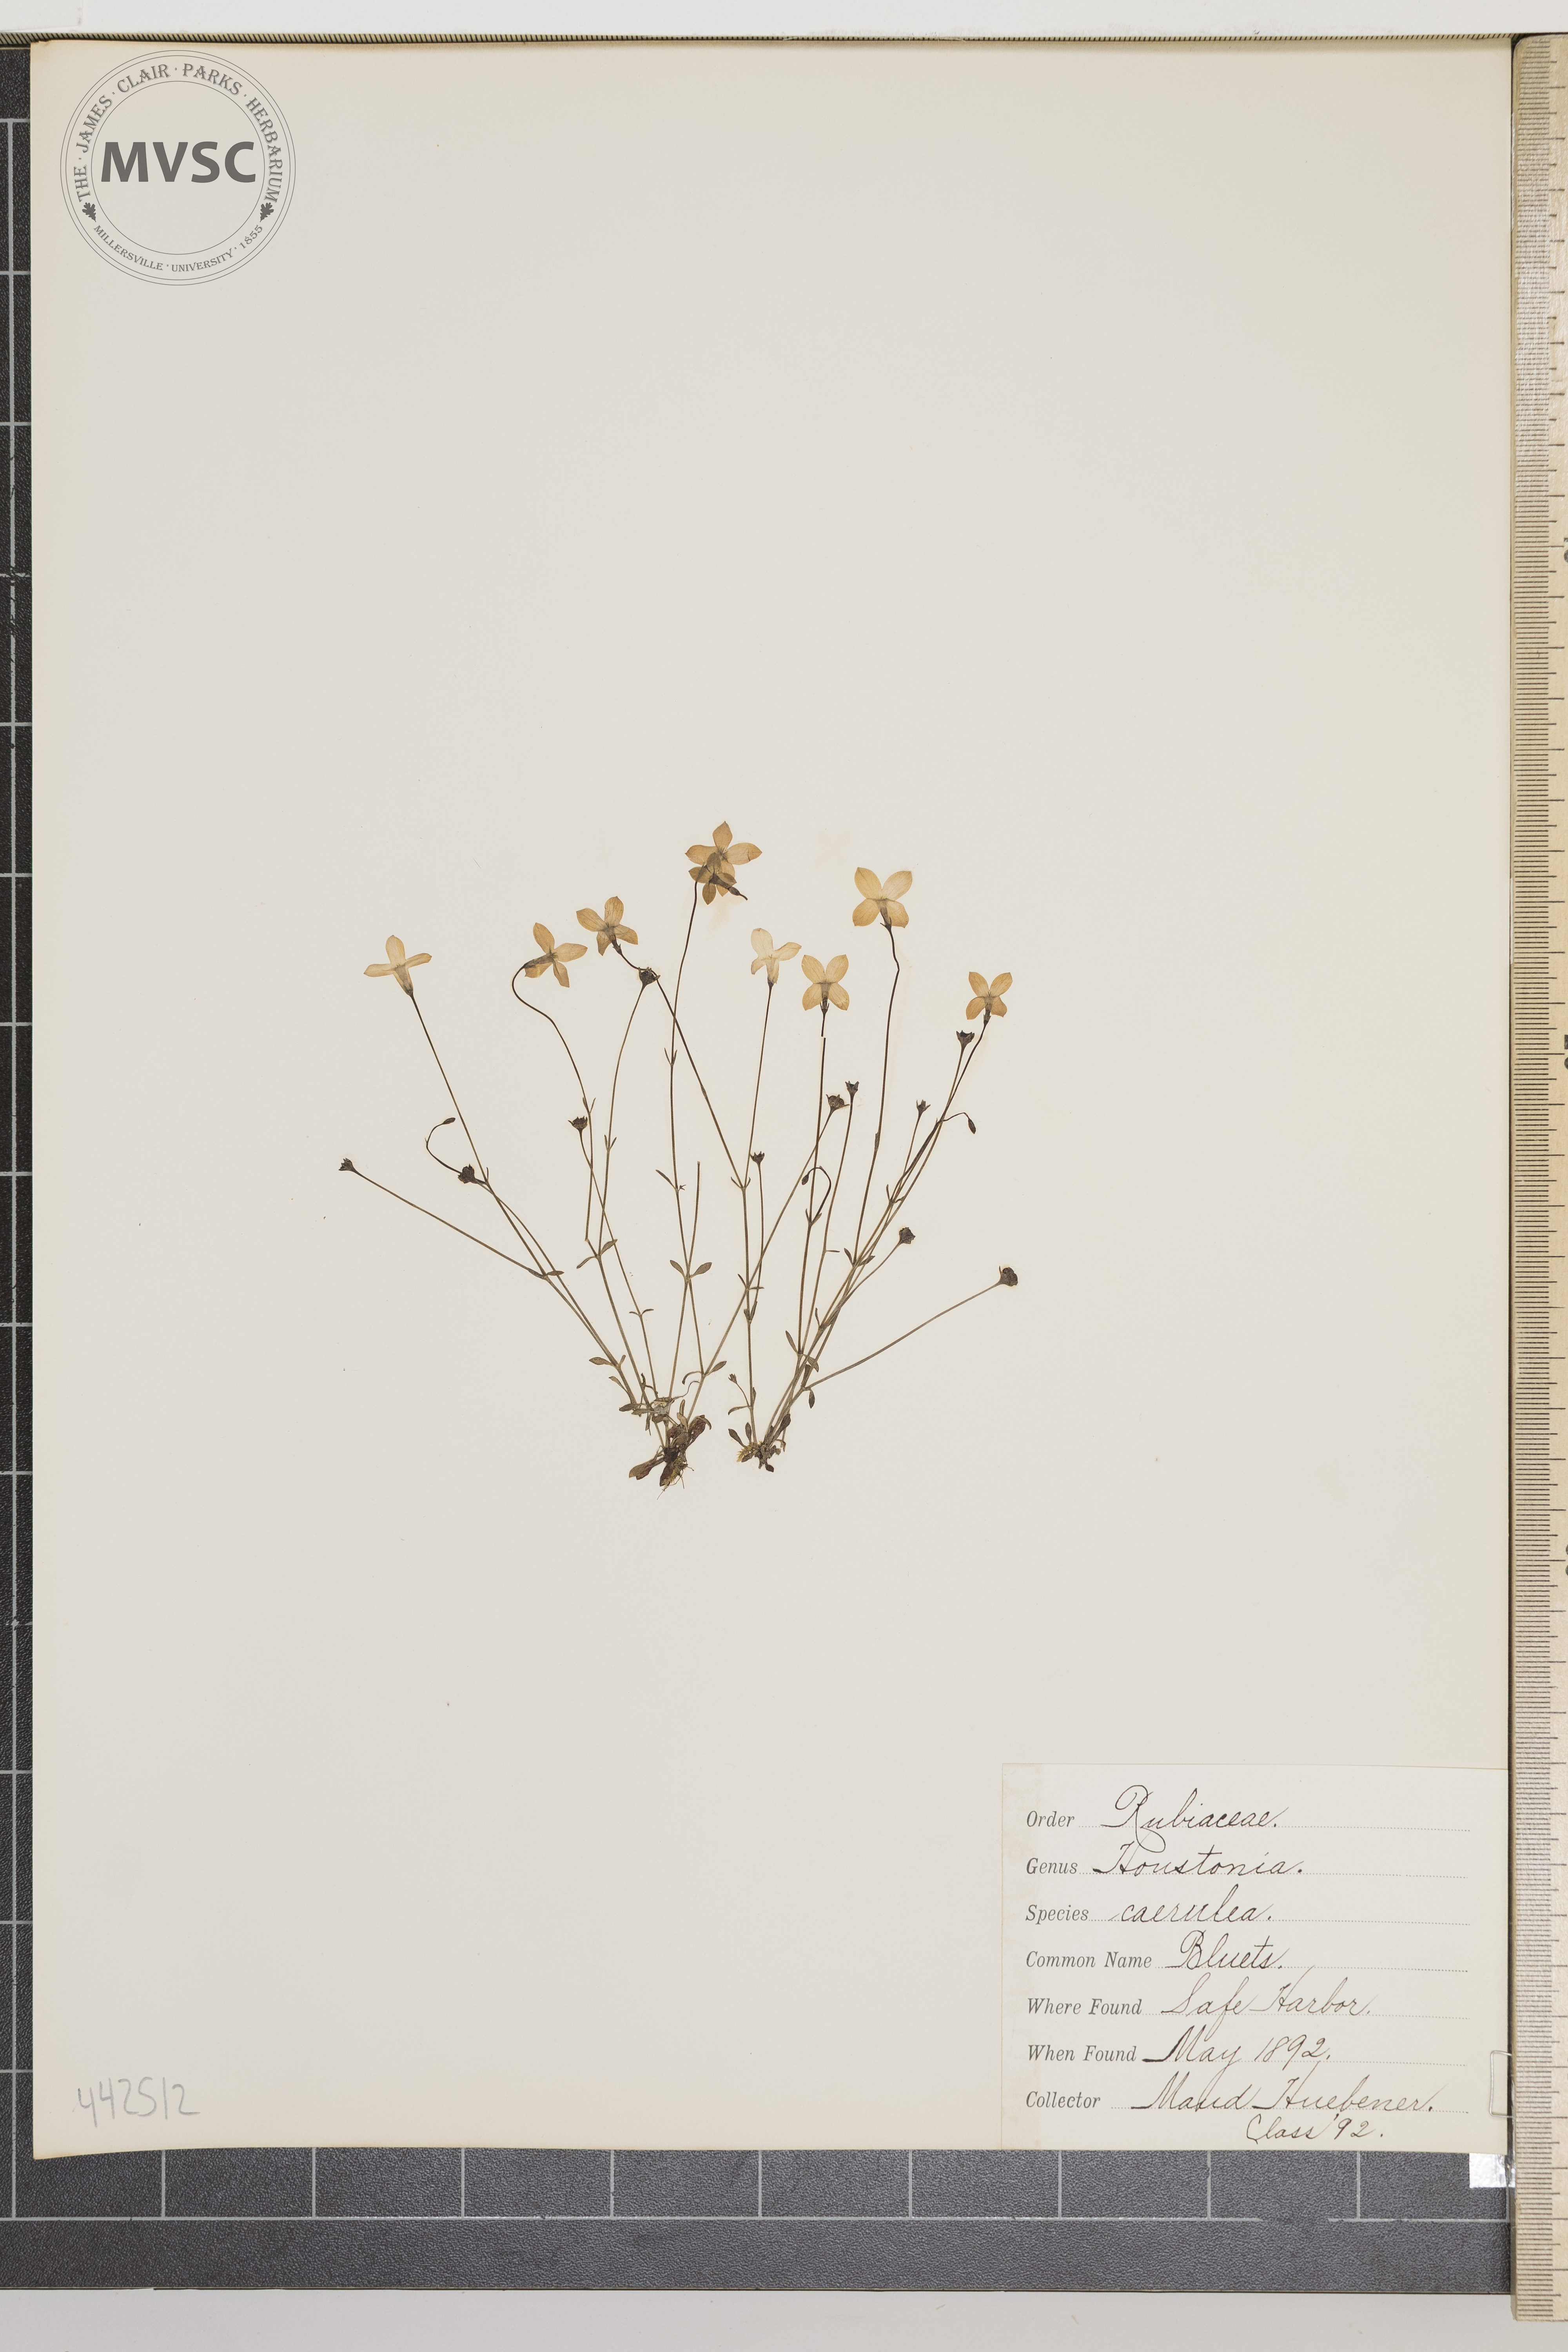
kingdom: Plantae
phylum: Tracheophyta
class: Magnoliopsida
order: Gentianales
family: Rubiaceae
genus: Houstonia
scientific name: Houstonia caerulea
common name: Bluets
